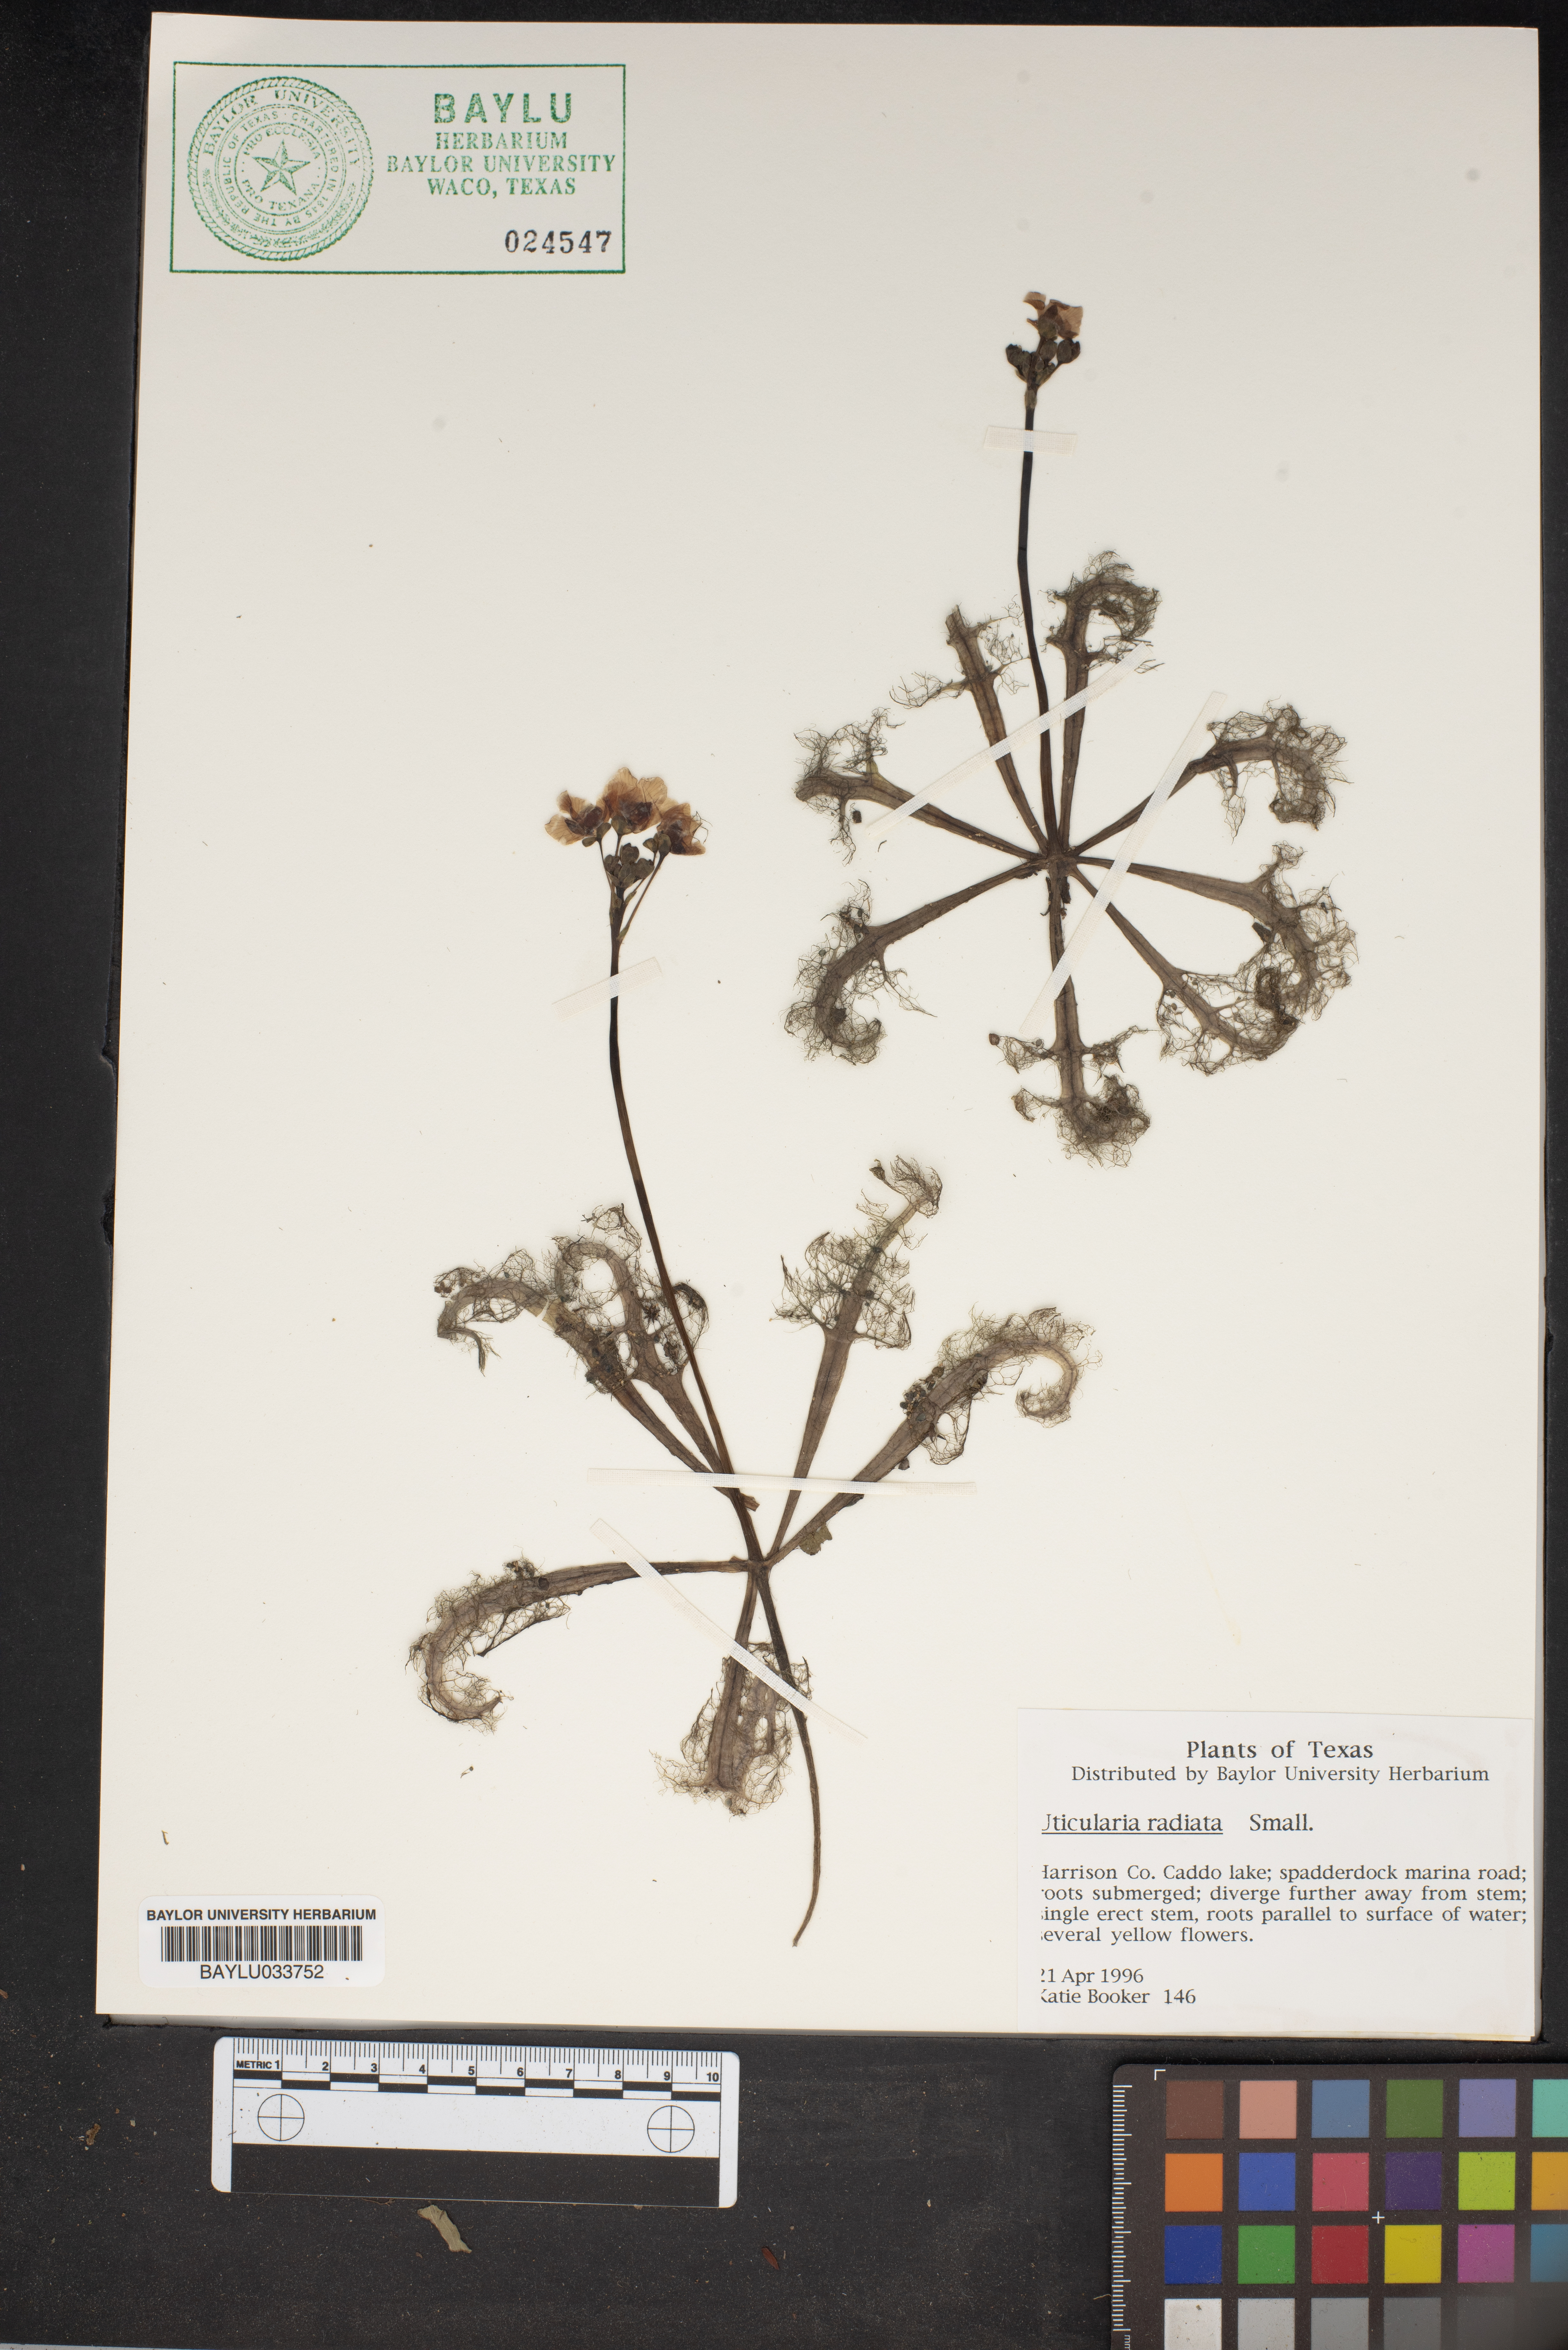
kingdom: Plantae
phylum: Tracheophyta
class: Magnoliopsida
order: Lamiales
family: Lentibulariaceae
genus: Utricularia
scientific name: Utricularia radiata
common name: Floating bladderwort
